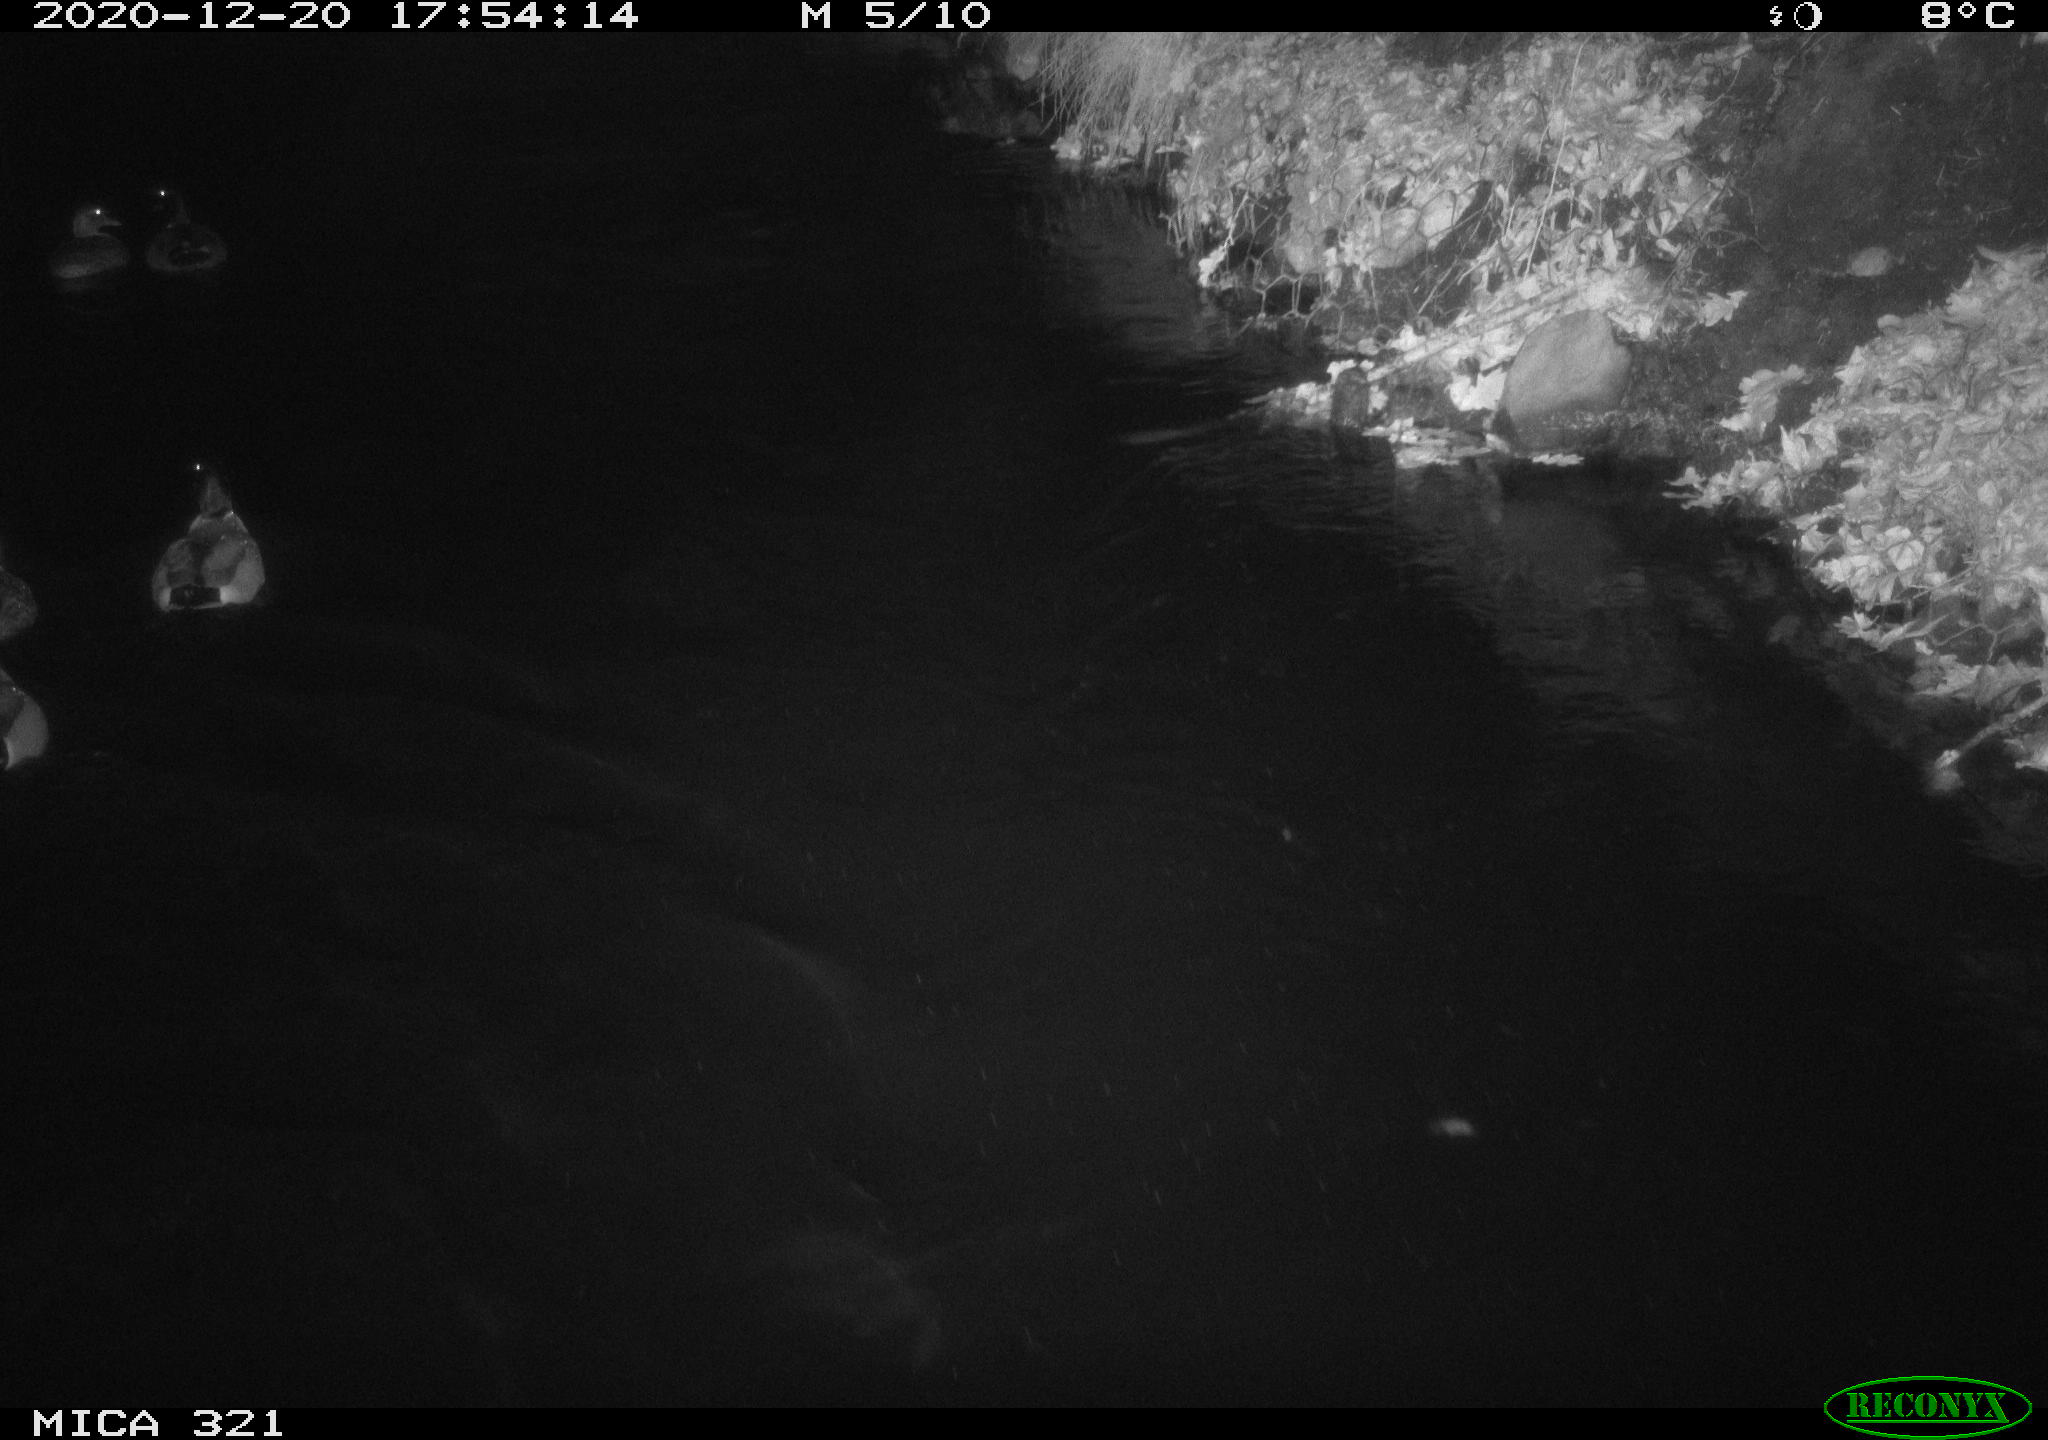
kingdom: Animalia
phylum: Chordata
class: Aves
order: Anseriformes
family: Anatidae
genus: Anas
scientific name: Anas platyrhynchos
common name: Mallard
